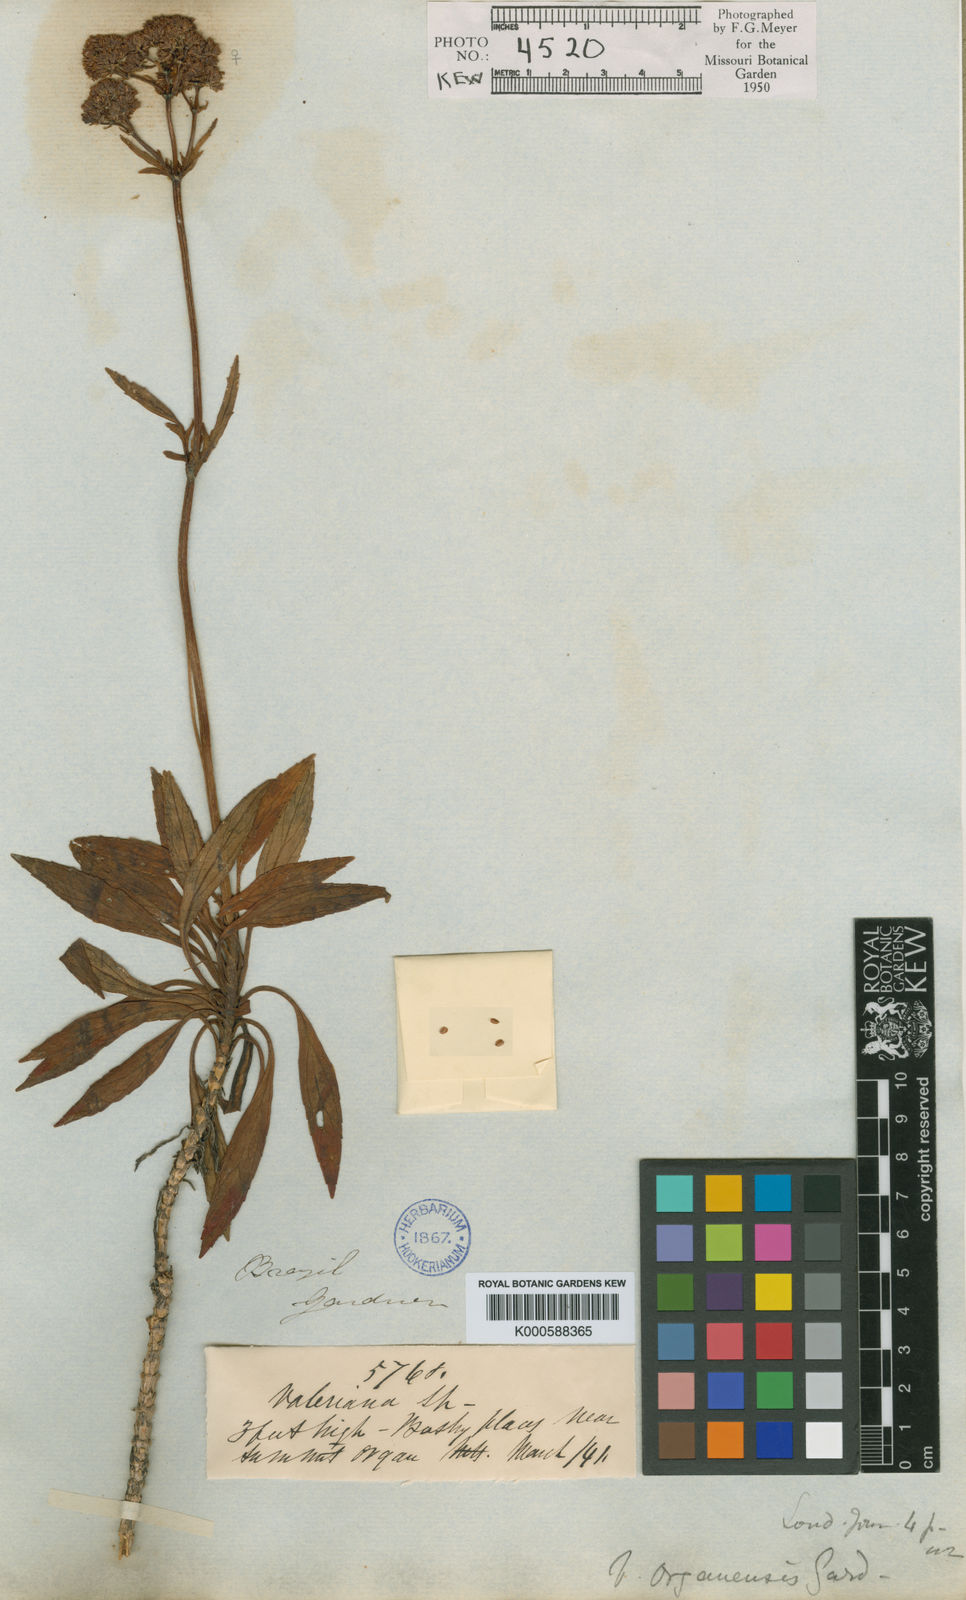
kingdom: Plantae
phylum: Tracheophyta
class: Magnoliopsida
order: Dipsacales
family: Caprifoliaceae
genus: Valeriana
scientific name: Valeriana
